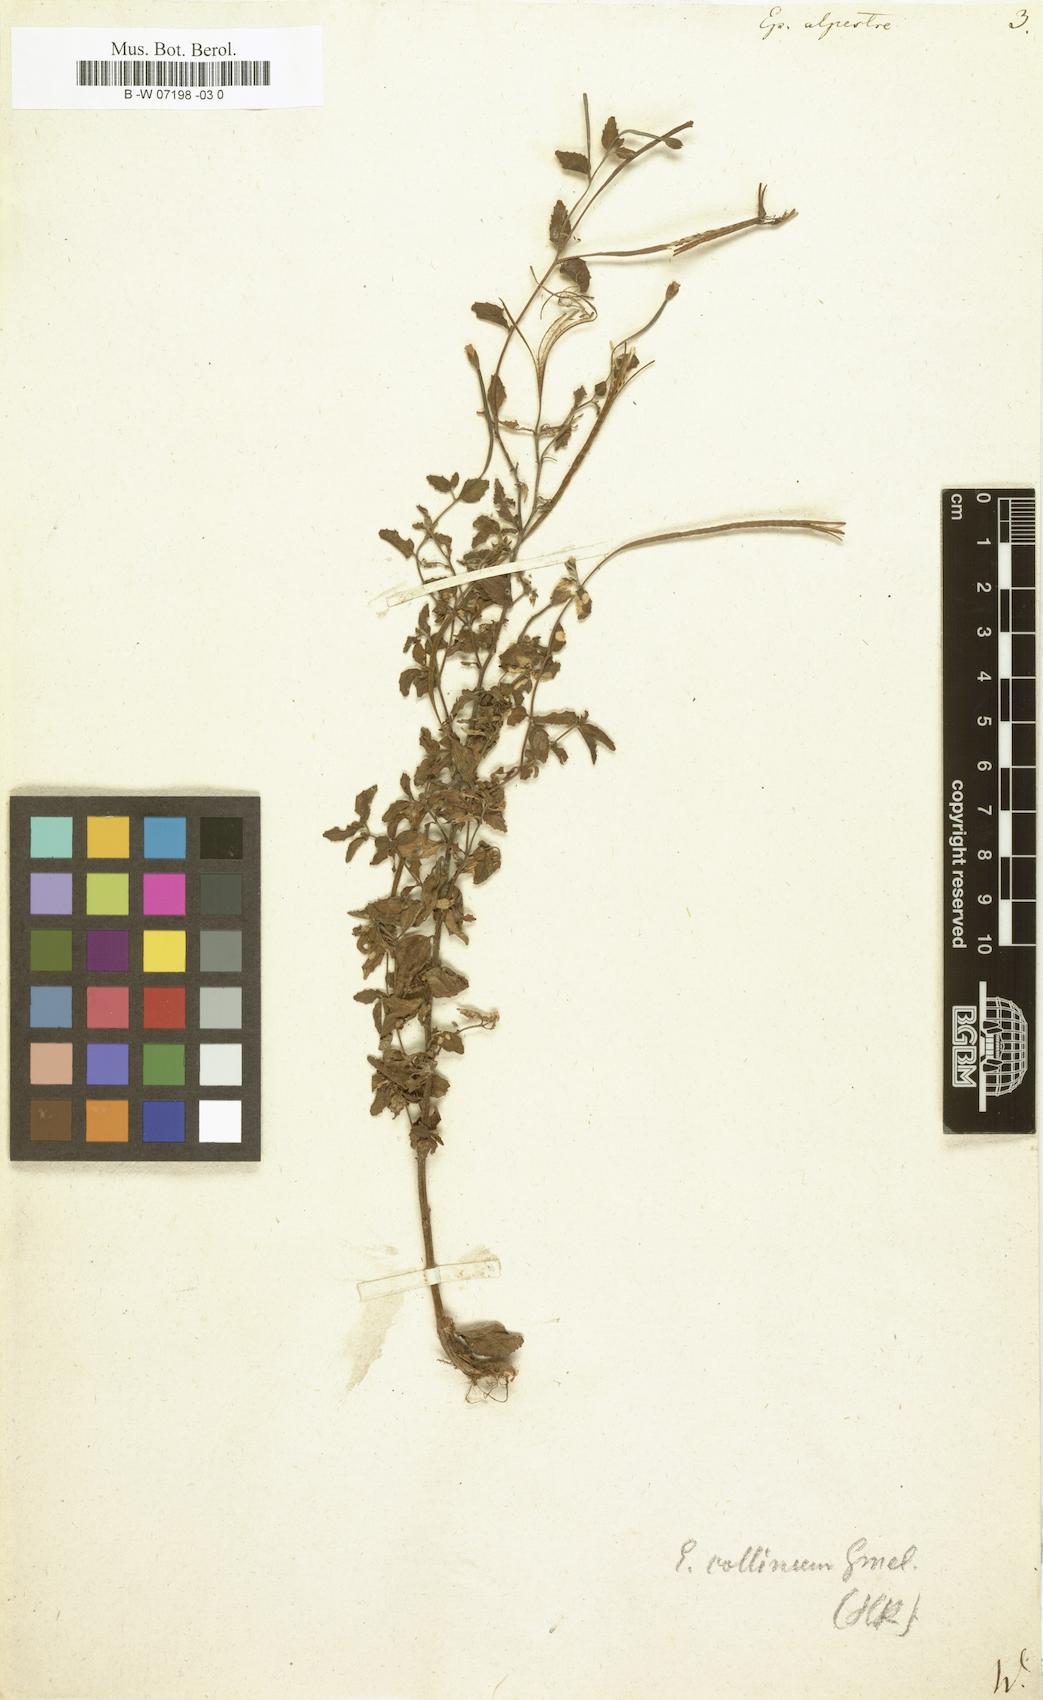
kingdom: Plantae
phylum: Tracheophyta
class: Magnoliopsida
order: Myrtales
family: Onagraceae
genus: Epilobium
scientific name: Epilobium alpestre
